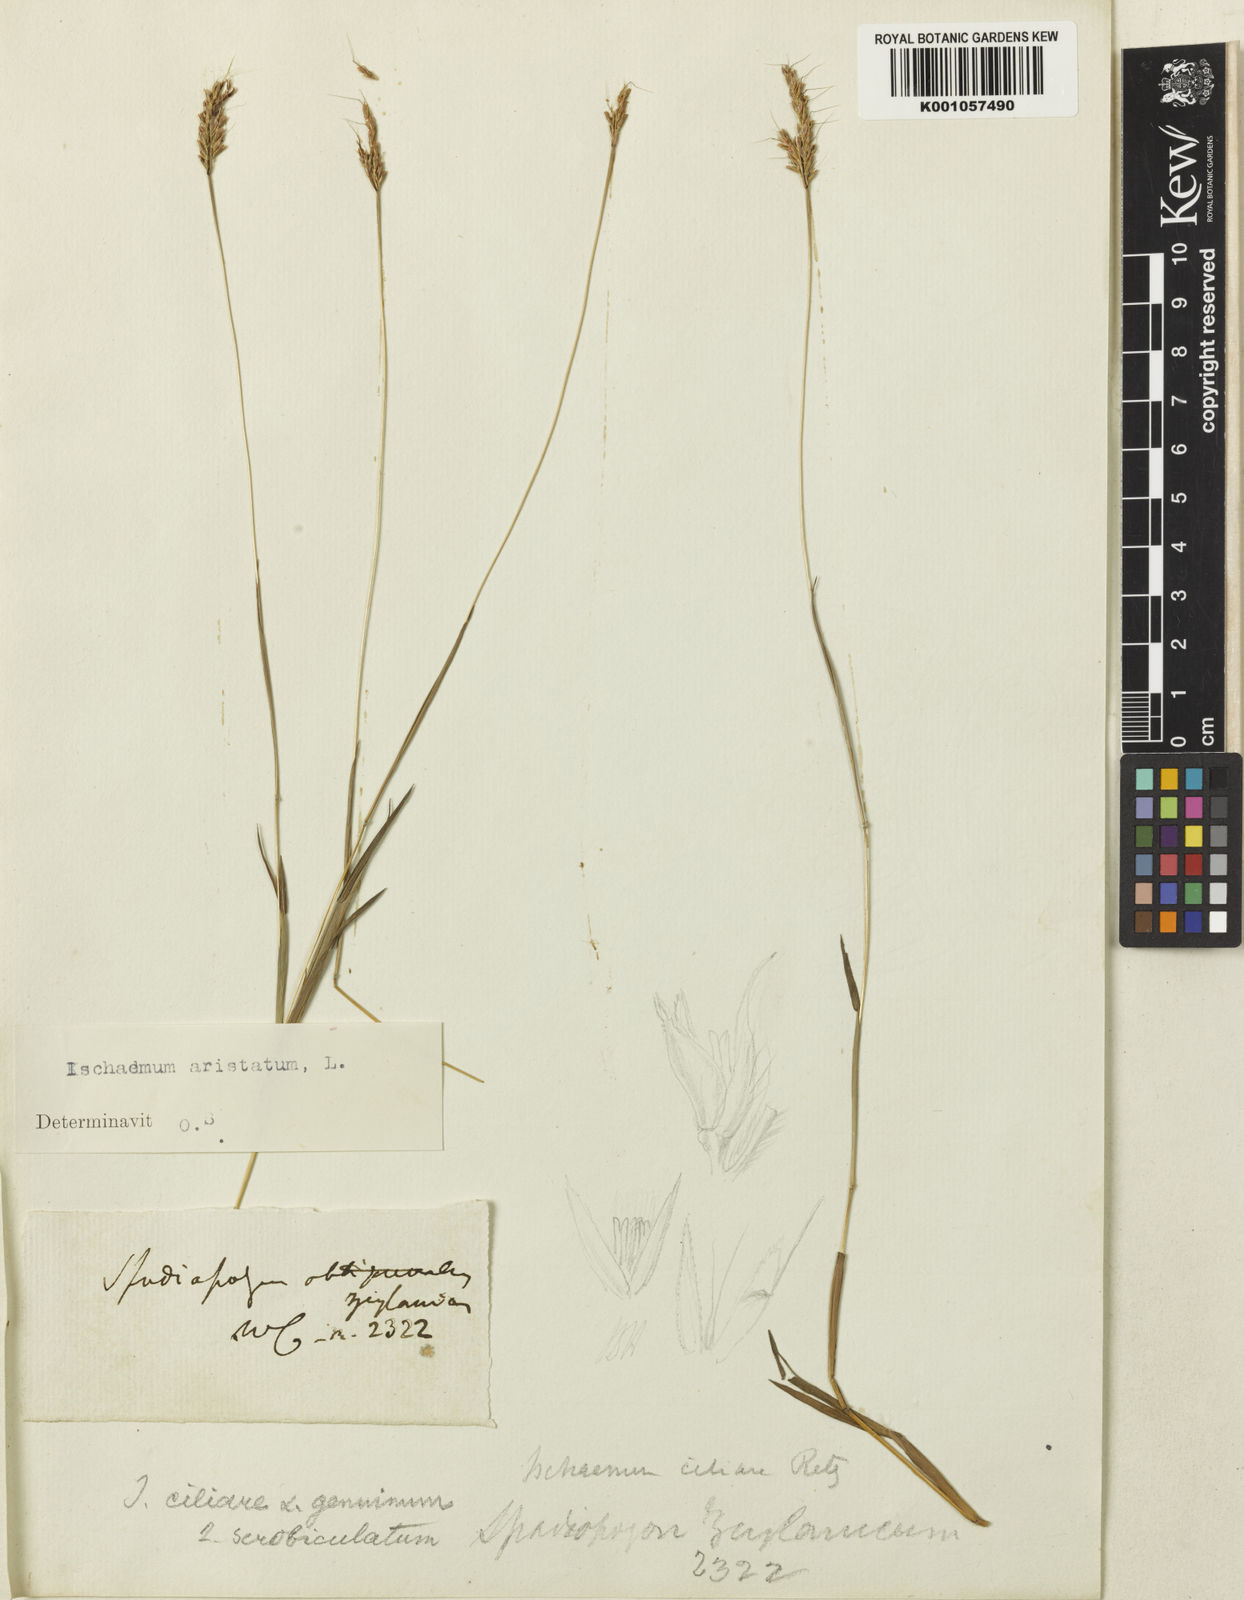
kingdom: Plantae
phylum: Tracheophyta
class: Liliopsida
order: Poales
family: Poaceae
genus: Polytrias
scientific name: Polytrias indica
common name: Indian murainagrass
